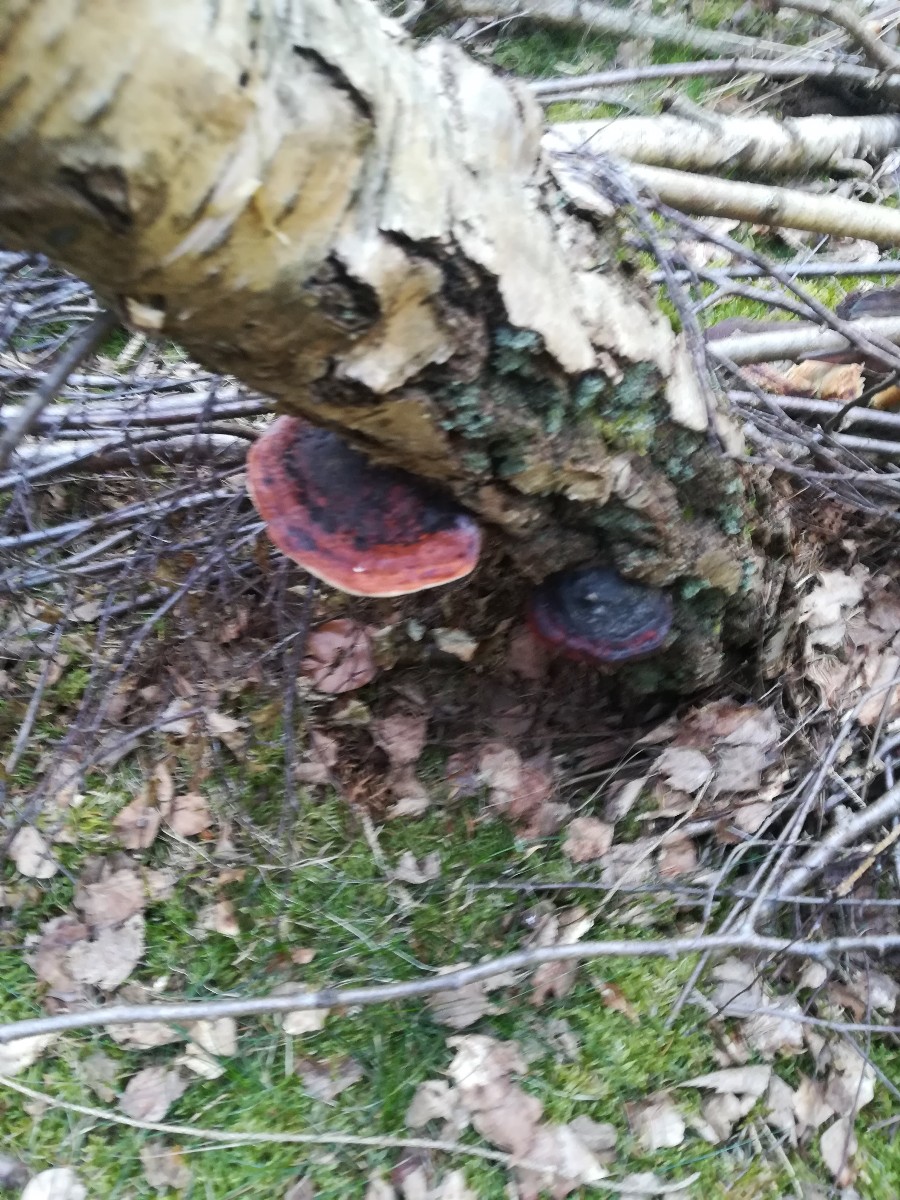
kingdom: Fungi
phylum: Basidiomycota
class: Agaricomycetes
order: Polyporales
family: Fomitopsidaceae
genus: Fomitopsis
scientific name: Fomitopsis pinicola
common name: randbæltet hovporesvamp
